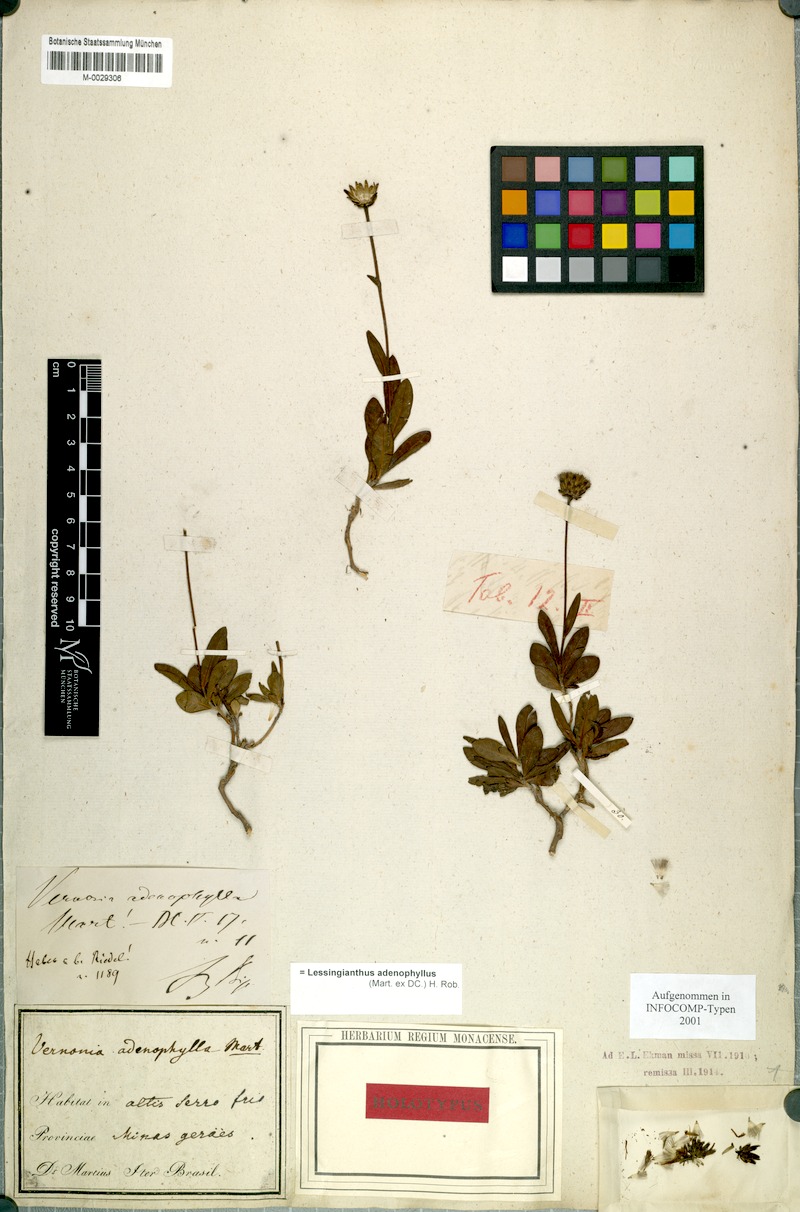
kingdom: Plantae
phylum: Tracheophyta
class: Magnoliopsida
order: Asterales
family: Asteraceae
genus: Lessingianthus
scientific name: Lessingianthus adenophyllus
